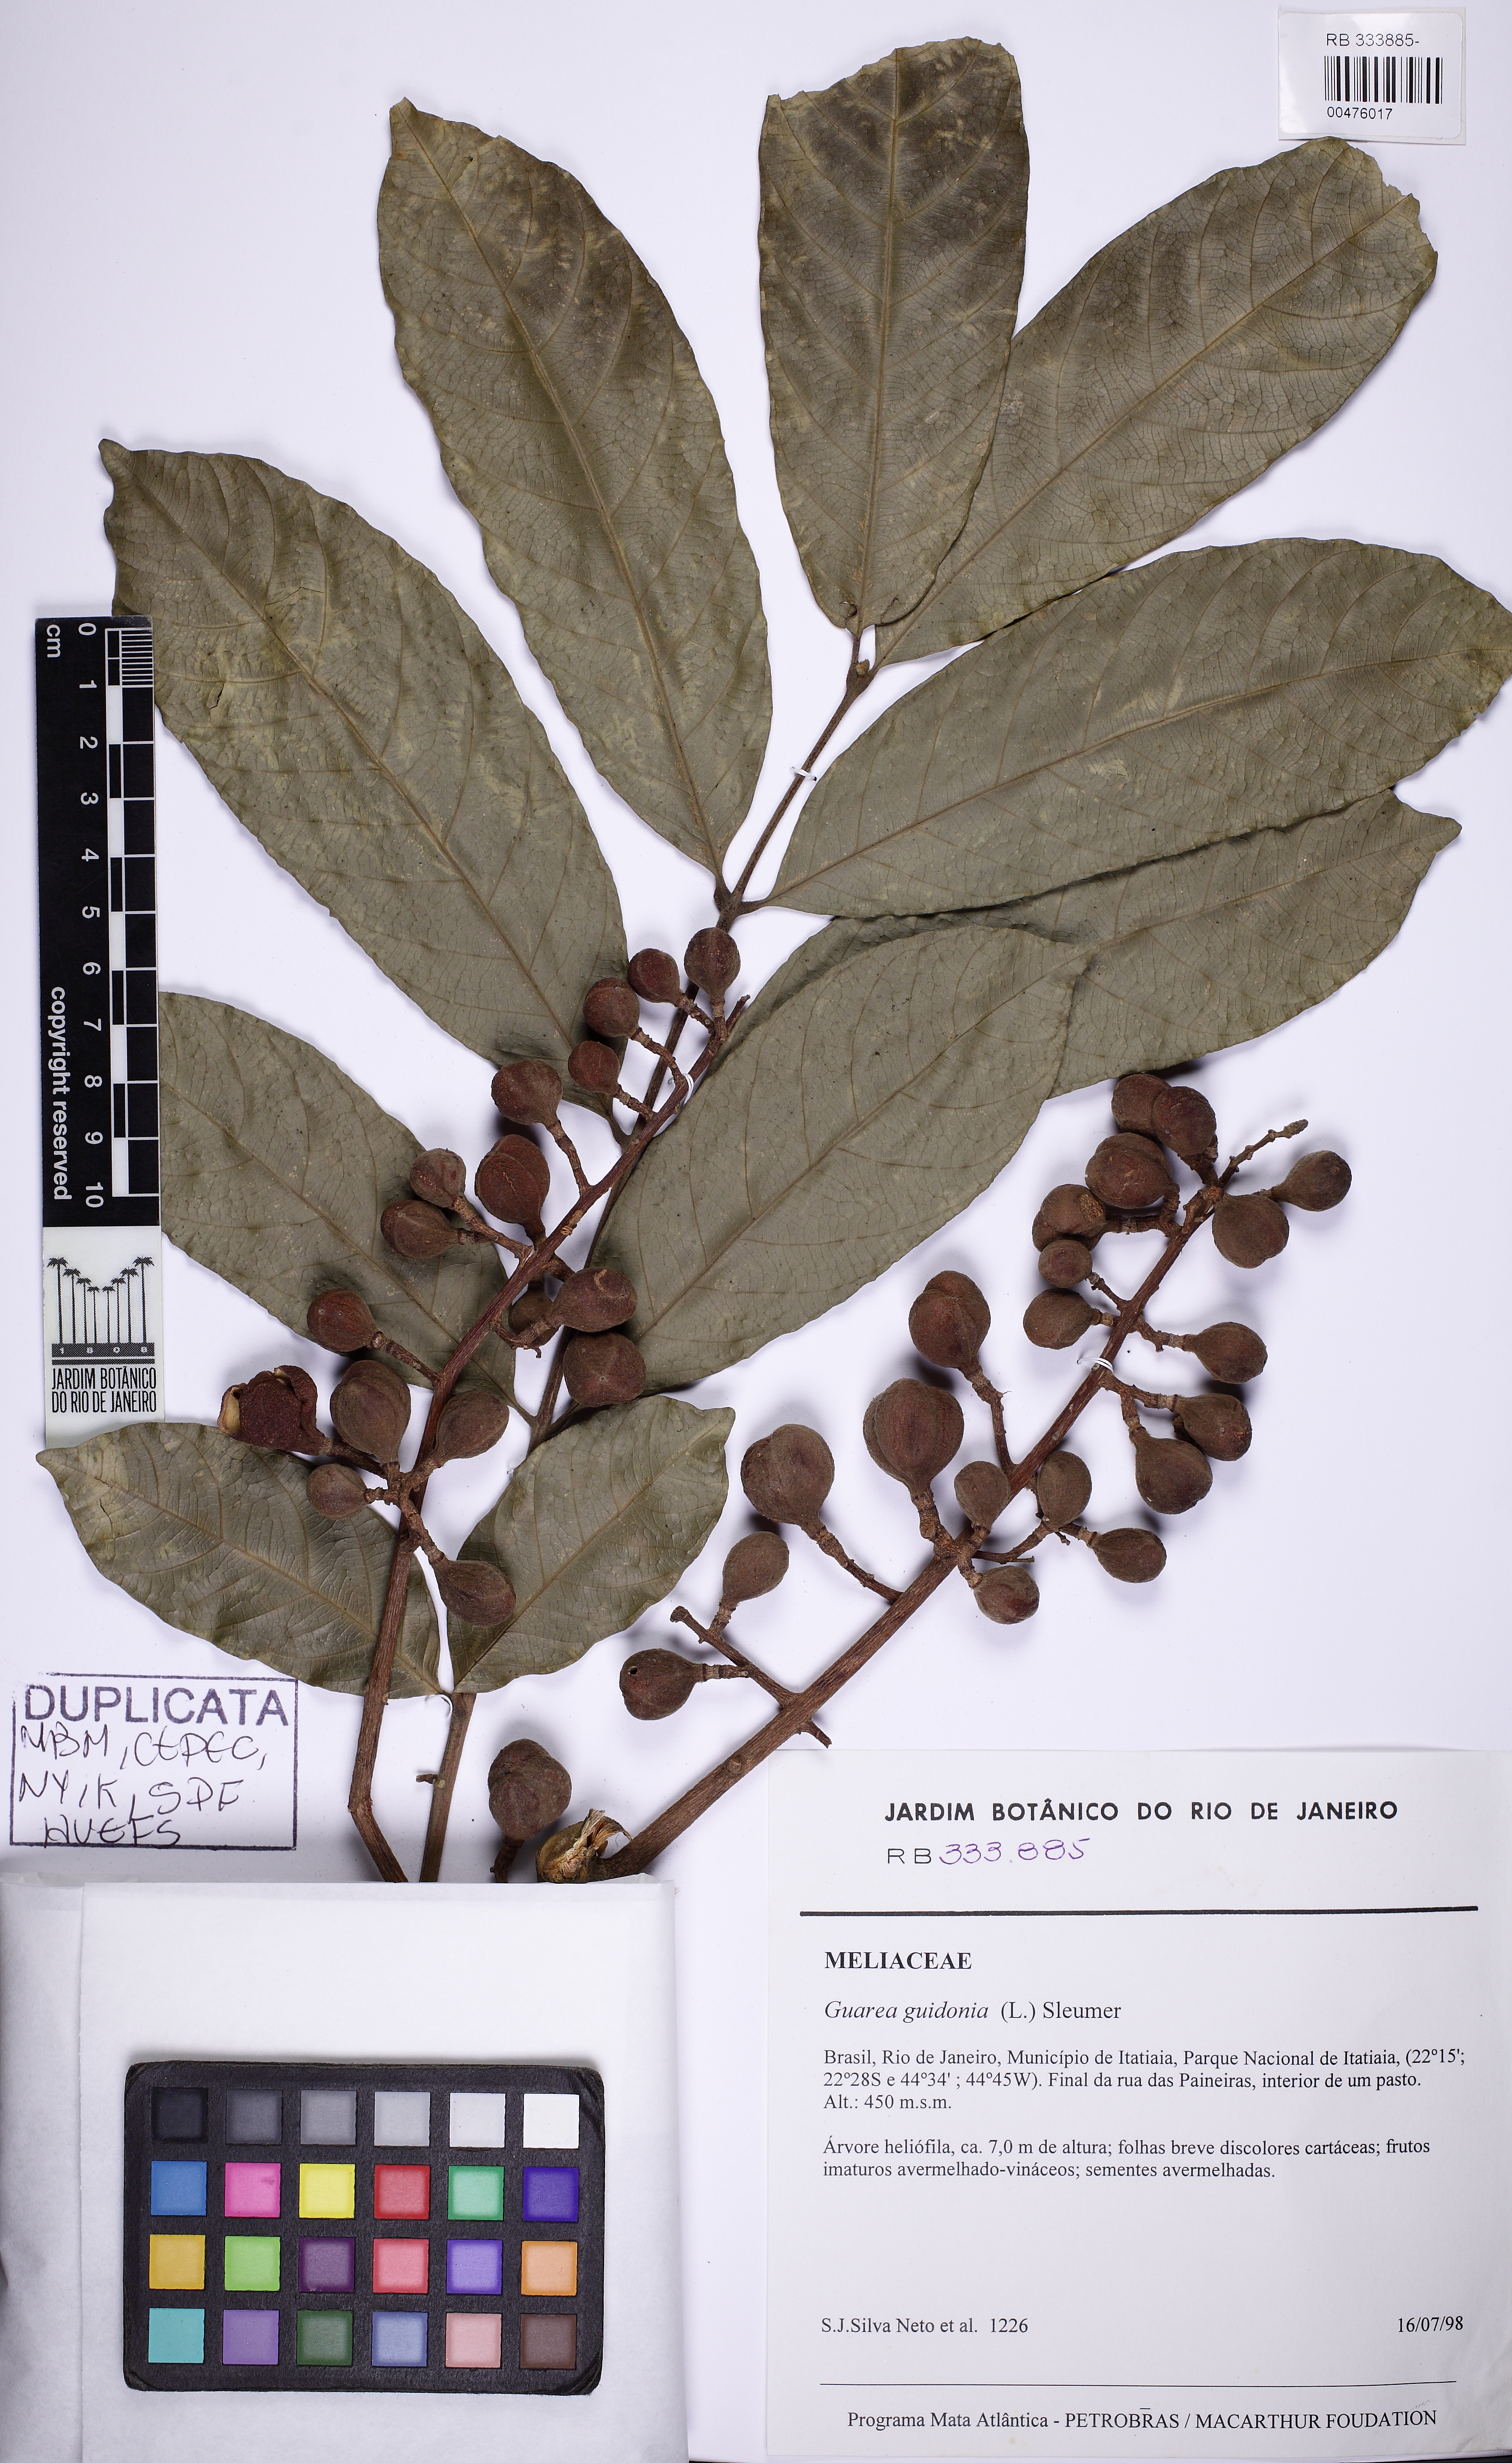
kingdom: Plantae
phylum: Tracheophyta
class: Magnoliopsida
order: Sapindales
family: Meliaceae
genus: Guarea
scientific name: Guarea guidonia
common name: American muskwood
